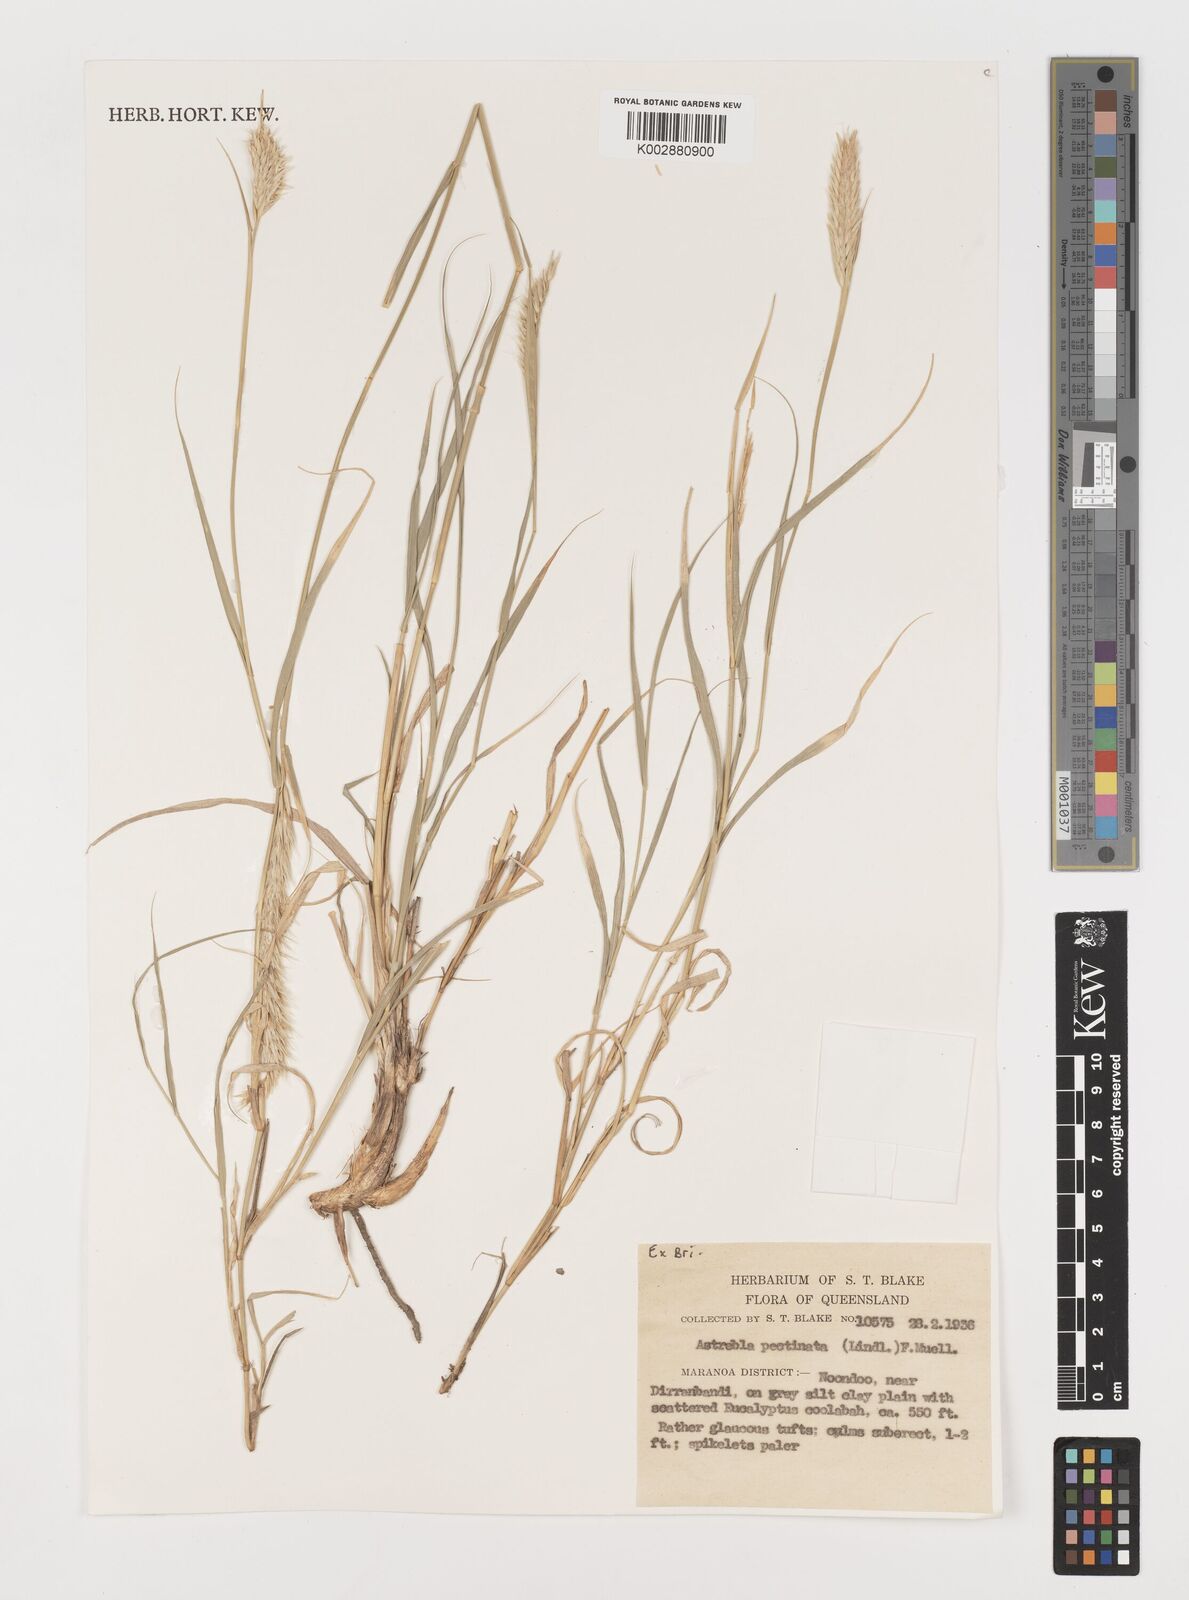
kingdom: Plantae
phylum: Tracheophyta
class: Liliopsida
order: Poales
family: Poaceae
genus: Astrebla
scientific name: Astrebla pectinata
